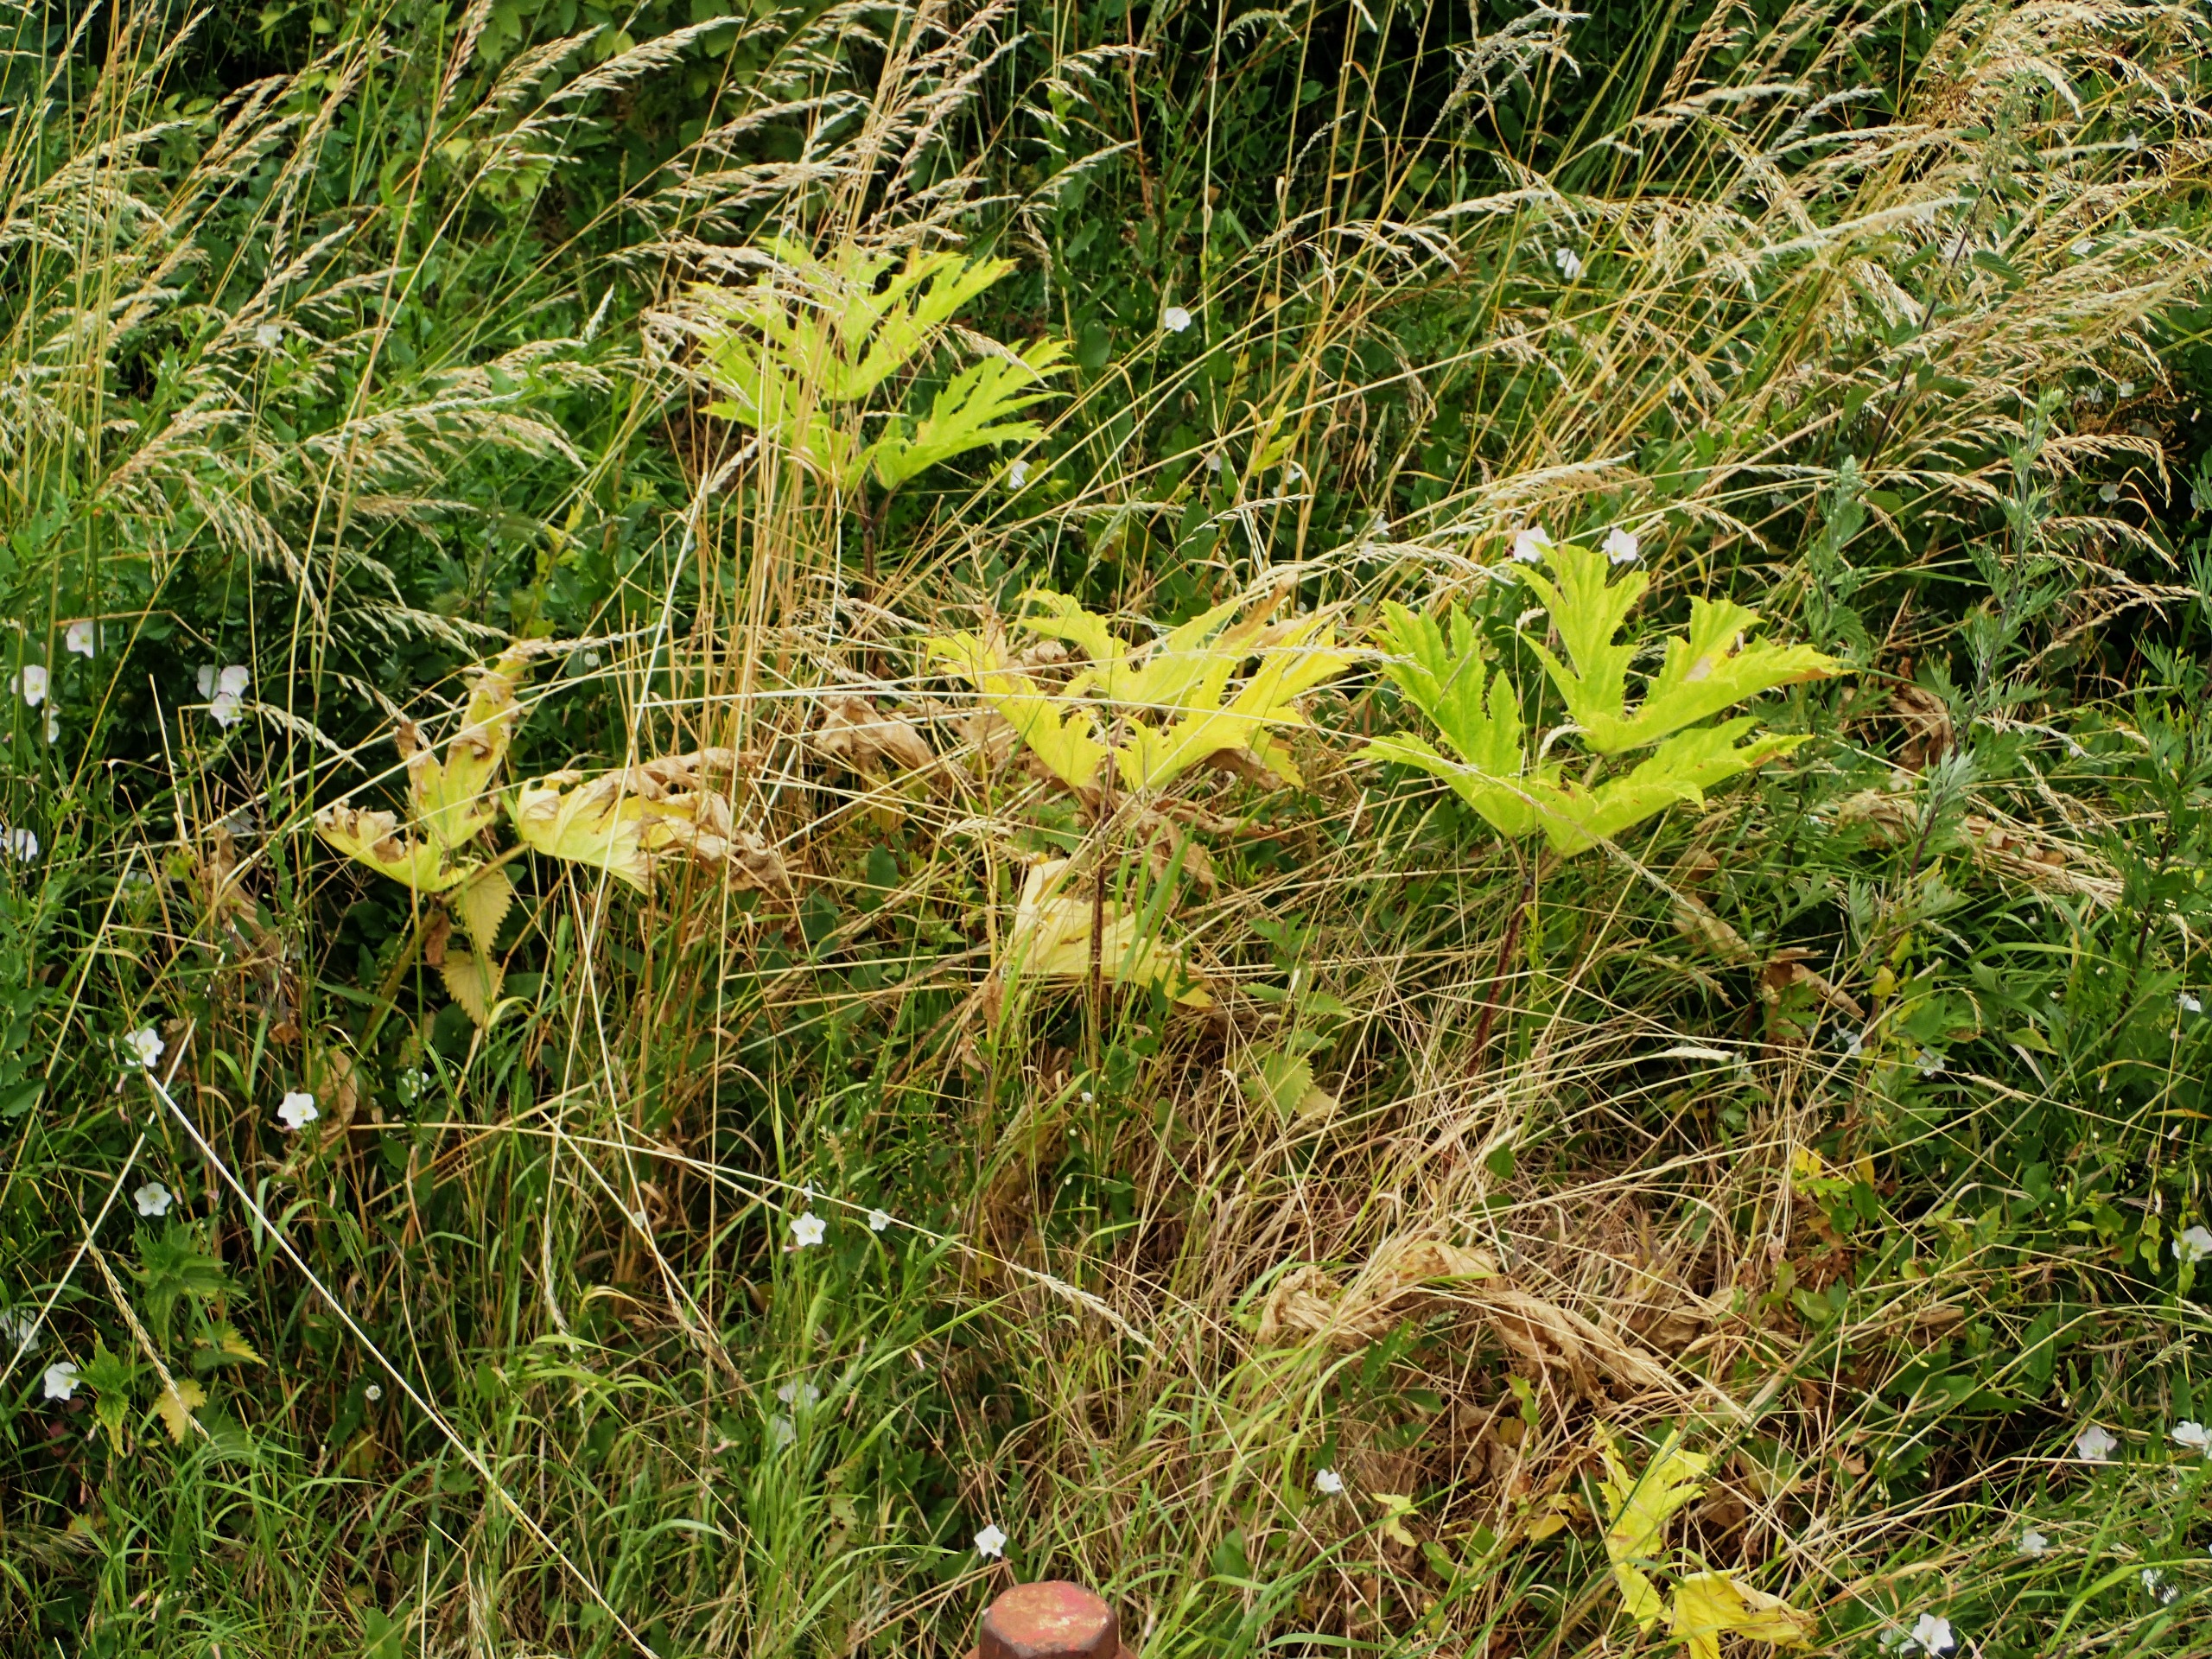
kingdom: Plantae
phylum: Tracheophyta
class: Magnoliopsida
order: Apiales
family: Apiaceae
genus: Heracleum
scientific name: Heracleum mantegazzianum
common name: Kæmpe-bjørneklo
